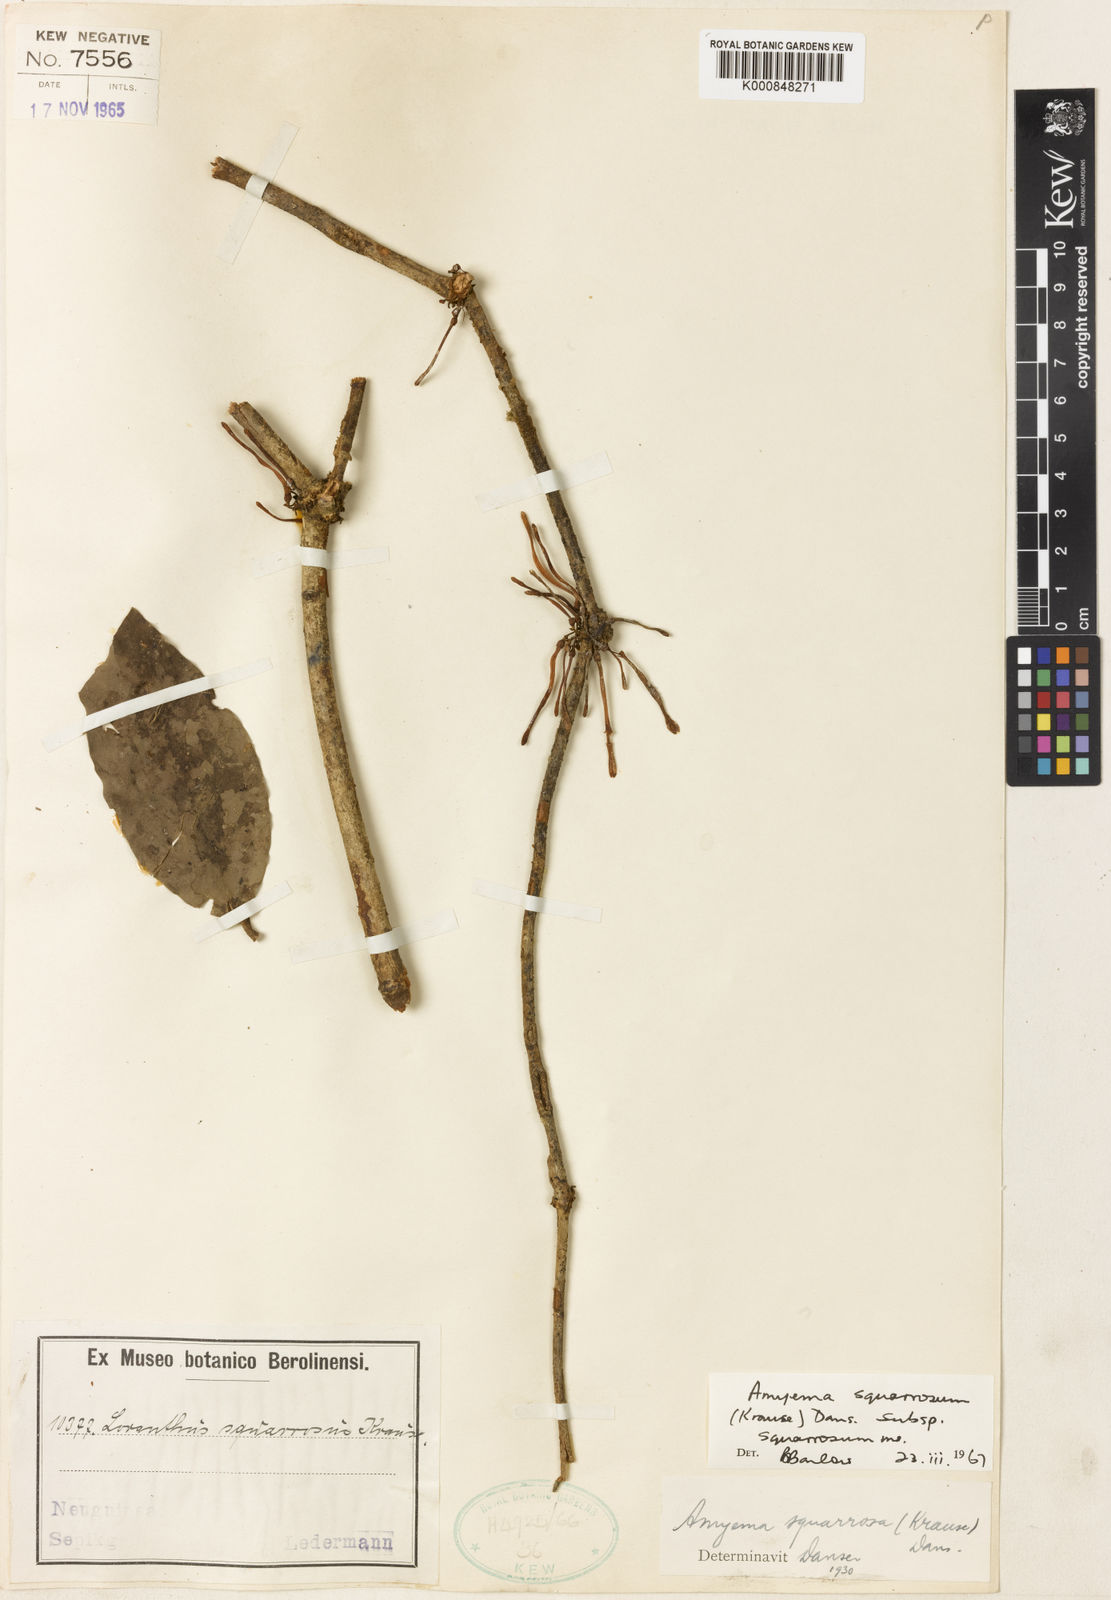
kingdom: Plantae
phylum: Tracheophyta
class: Magnoliopsida
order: Santalales
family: Loranthaceae
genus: Amyema
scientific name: Amyema squarrosa
